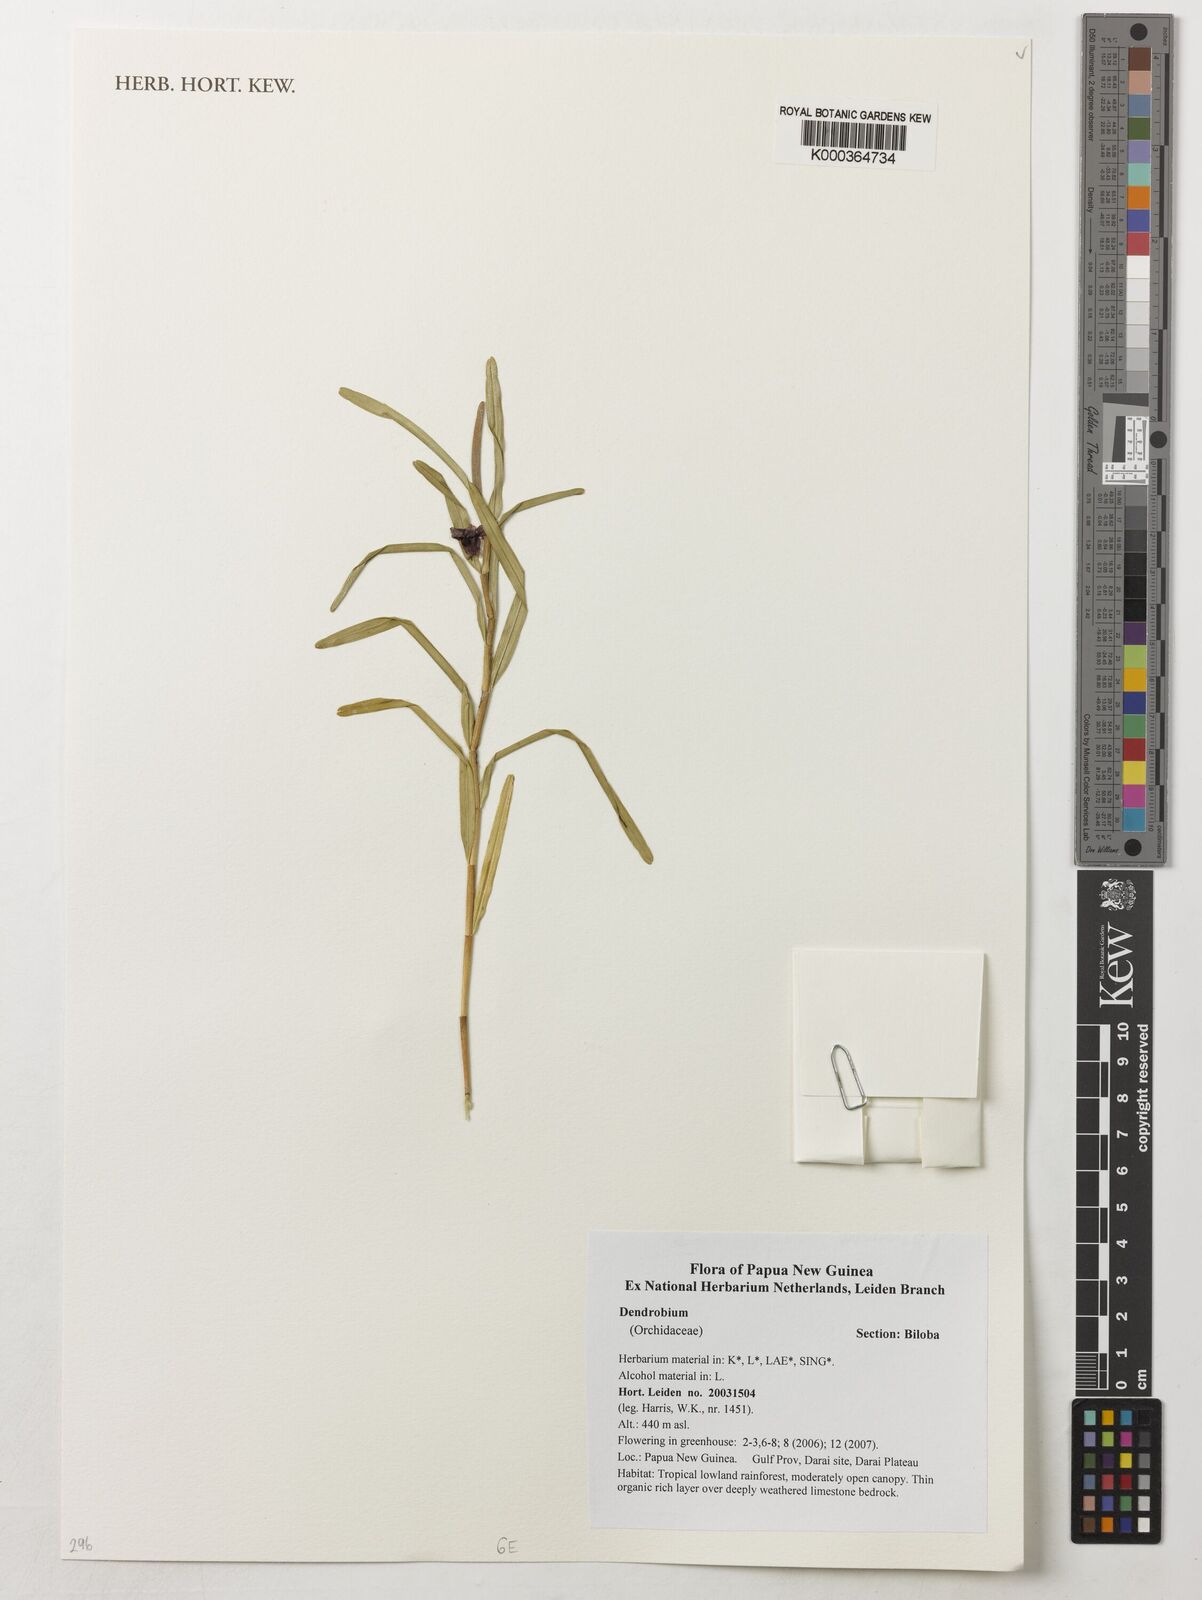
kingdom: Plantae
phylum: Tracheophyta
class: Liliopsida
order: Asparagales
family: Orchidaceae
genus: Dendrobium
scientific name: Dendrobium
